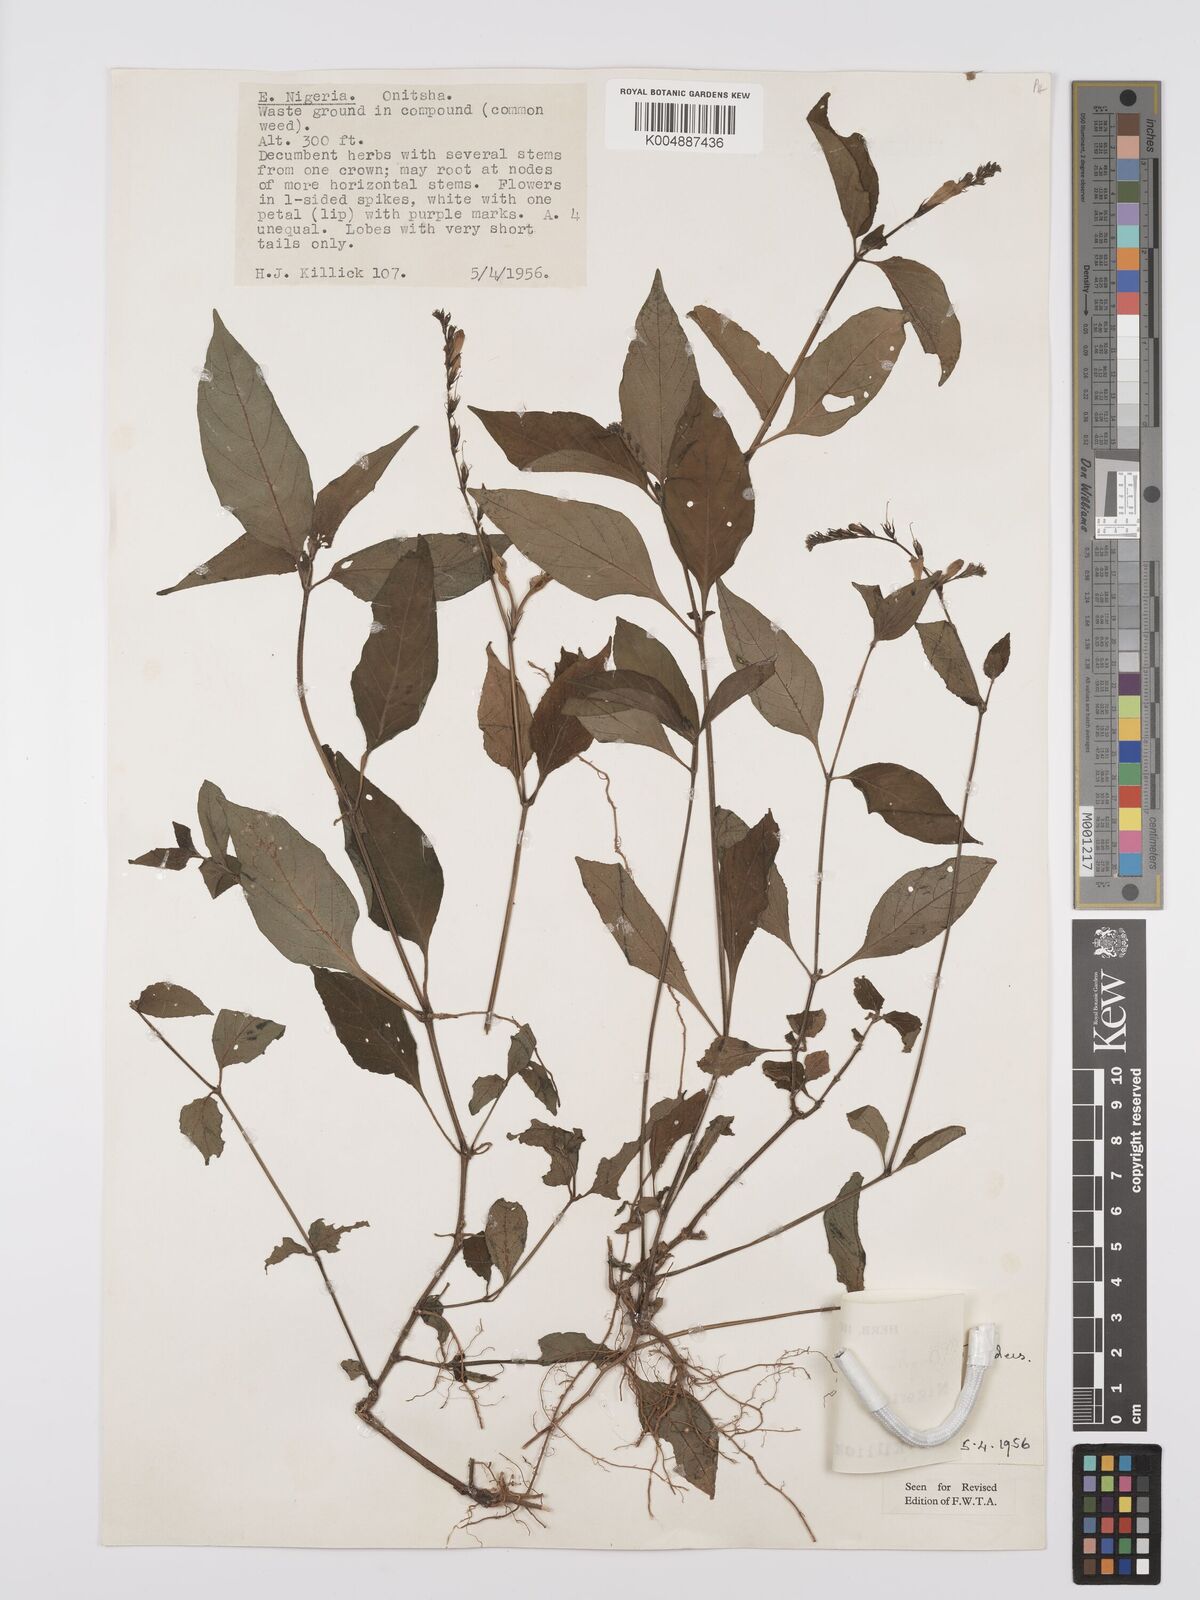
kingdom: Plantae
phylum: Tracheophyta
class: Magnoliopsida
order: Lamiales
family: Acanthaceae
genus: Asystasia
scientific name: Asystasia gangetica
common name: Chinese violet
